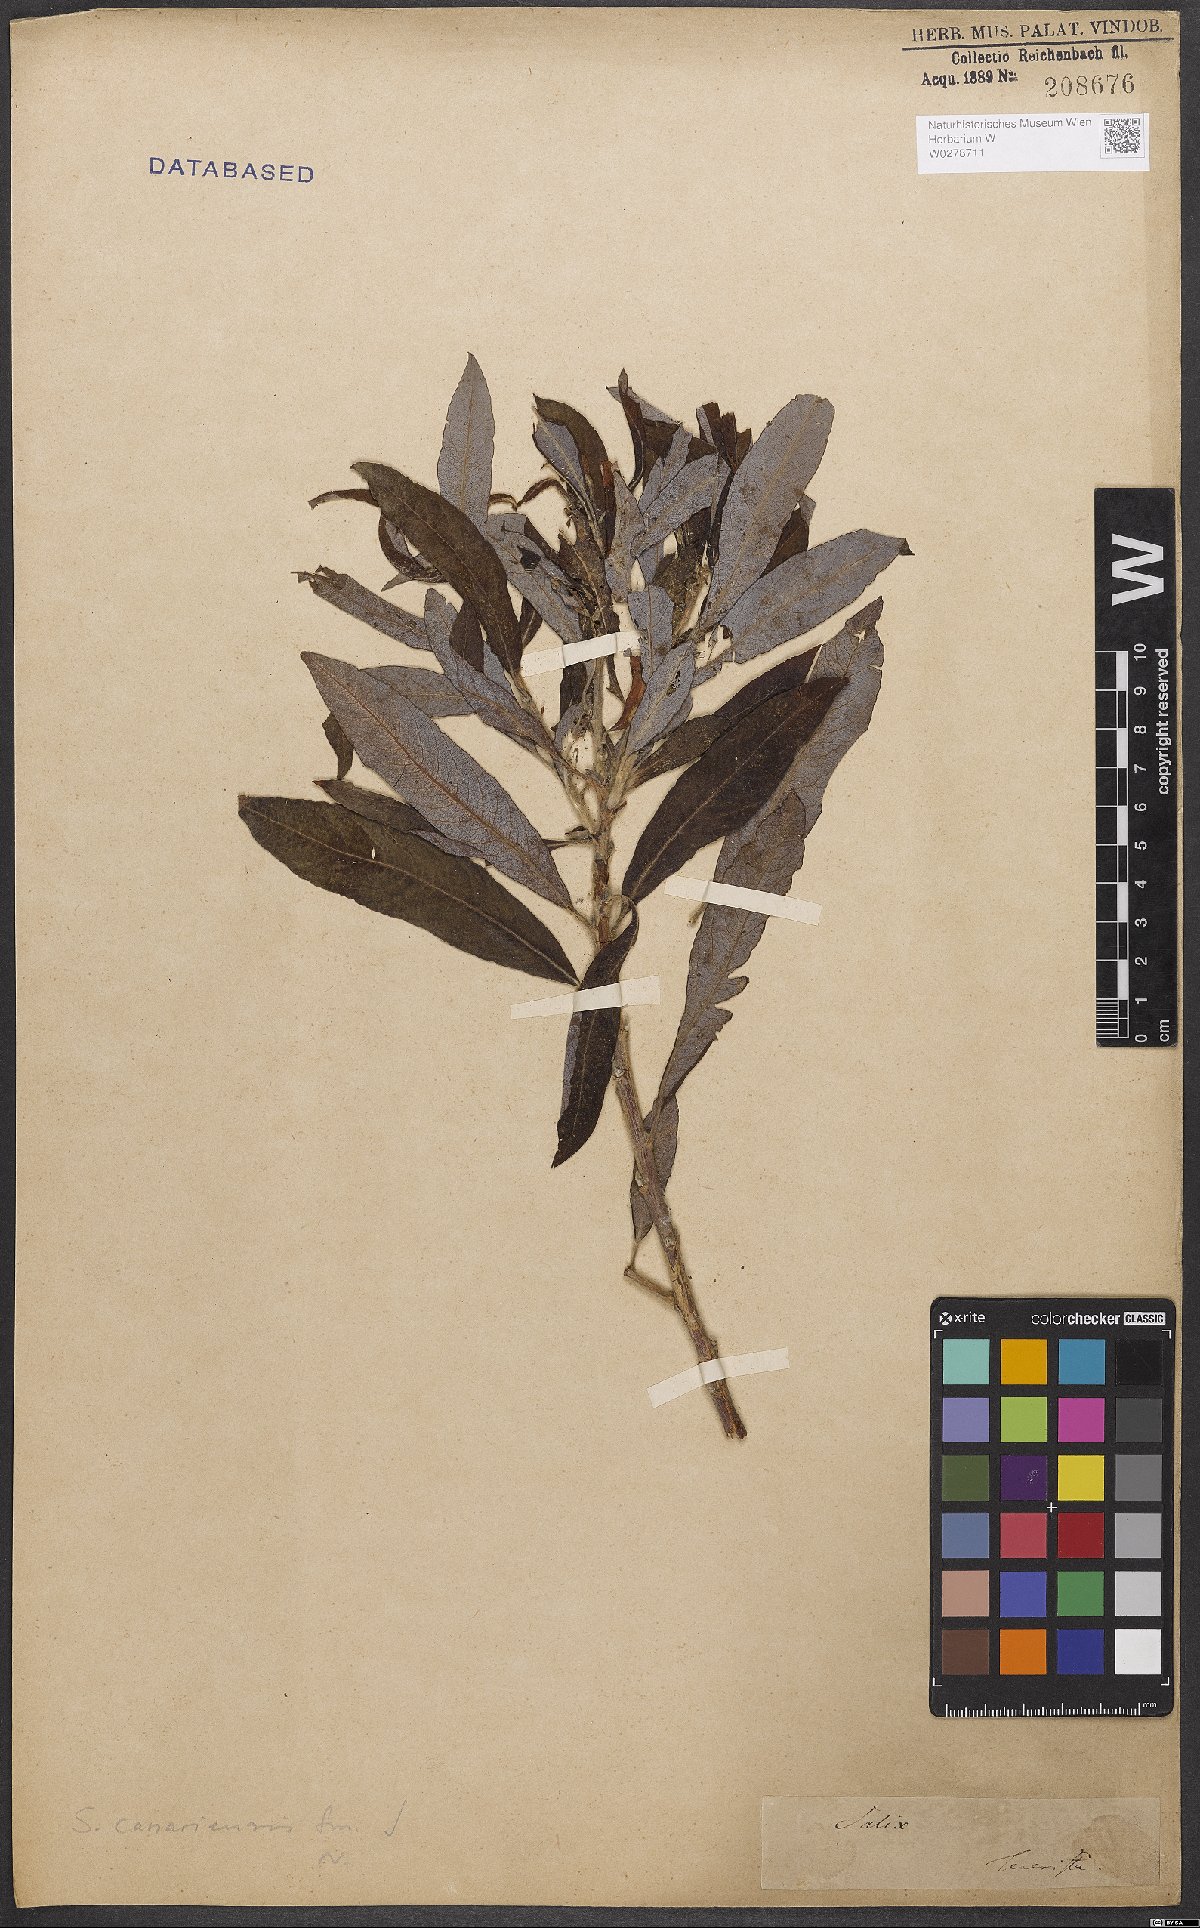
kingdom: Plantae
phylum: Tracheophyta
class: Magnoliopsida
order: Malpighiales
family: Salicaceae
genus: Salix
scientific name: Salix canariensis
